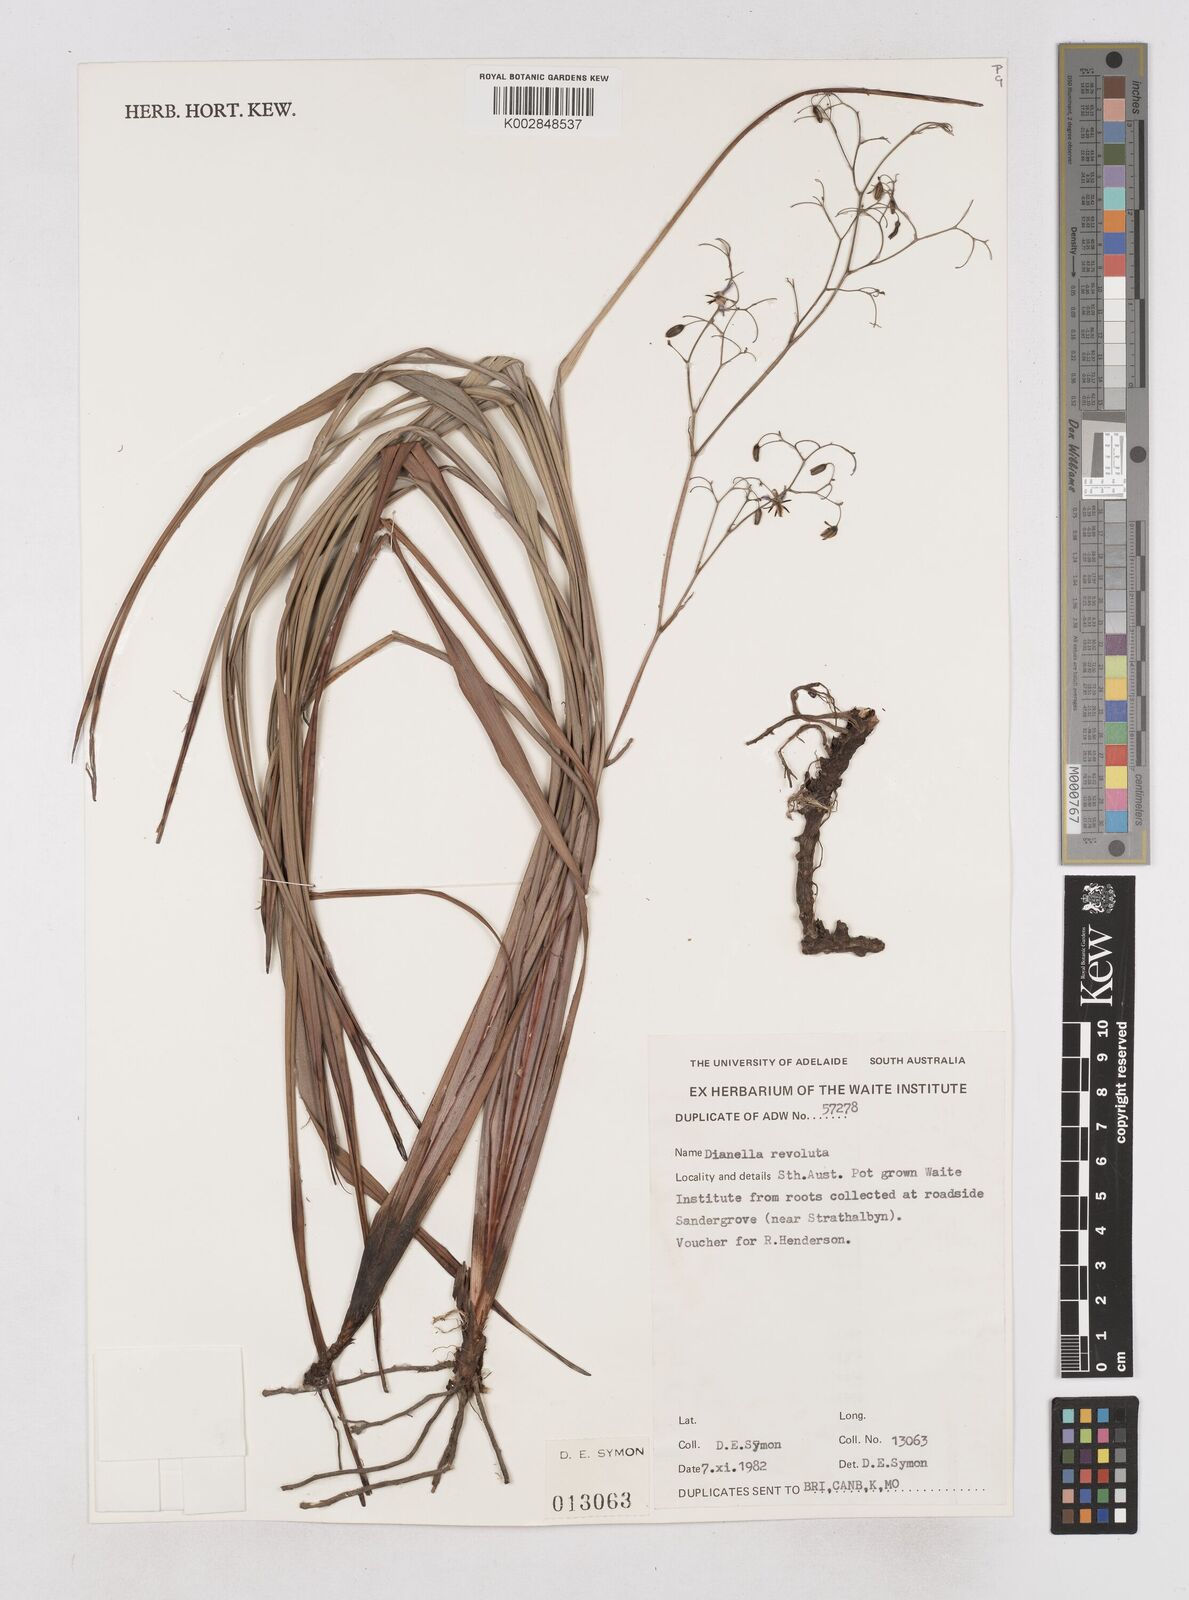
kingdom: Plantae
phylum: Tracheophyta
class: Liliopsida
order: Asparagales
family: Asphodelaceae
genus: Dianella
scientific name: Dianella revoluta
